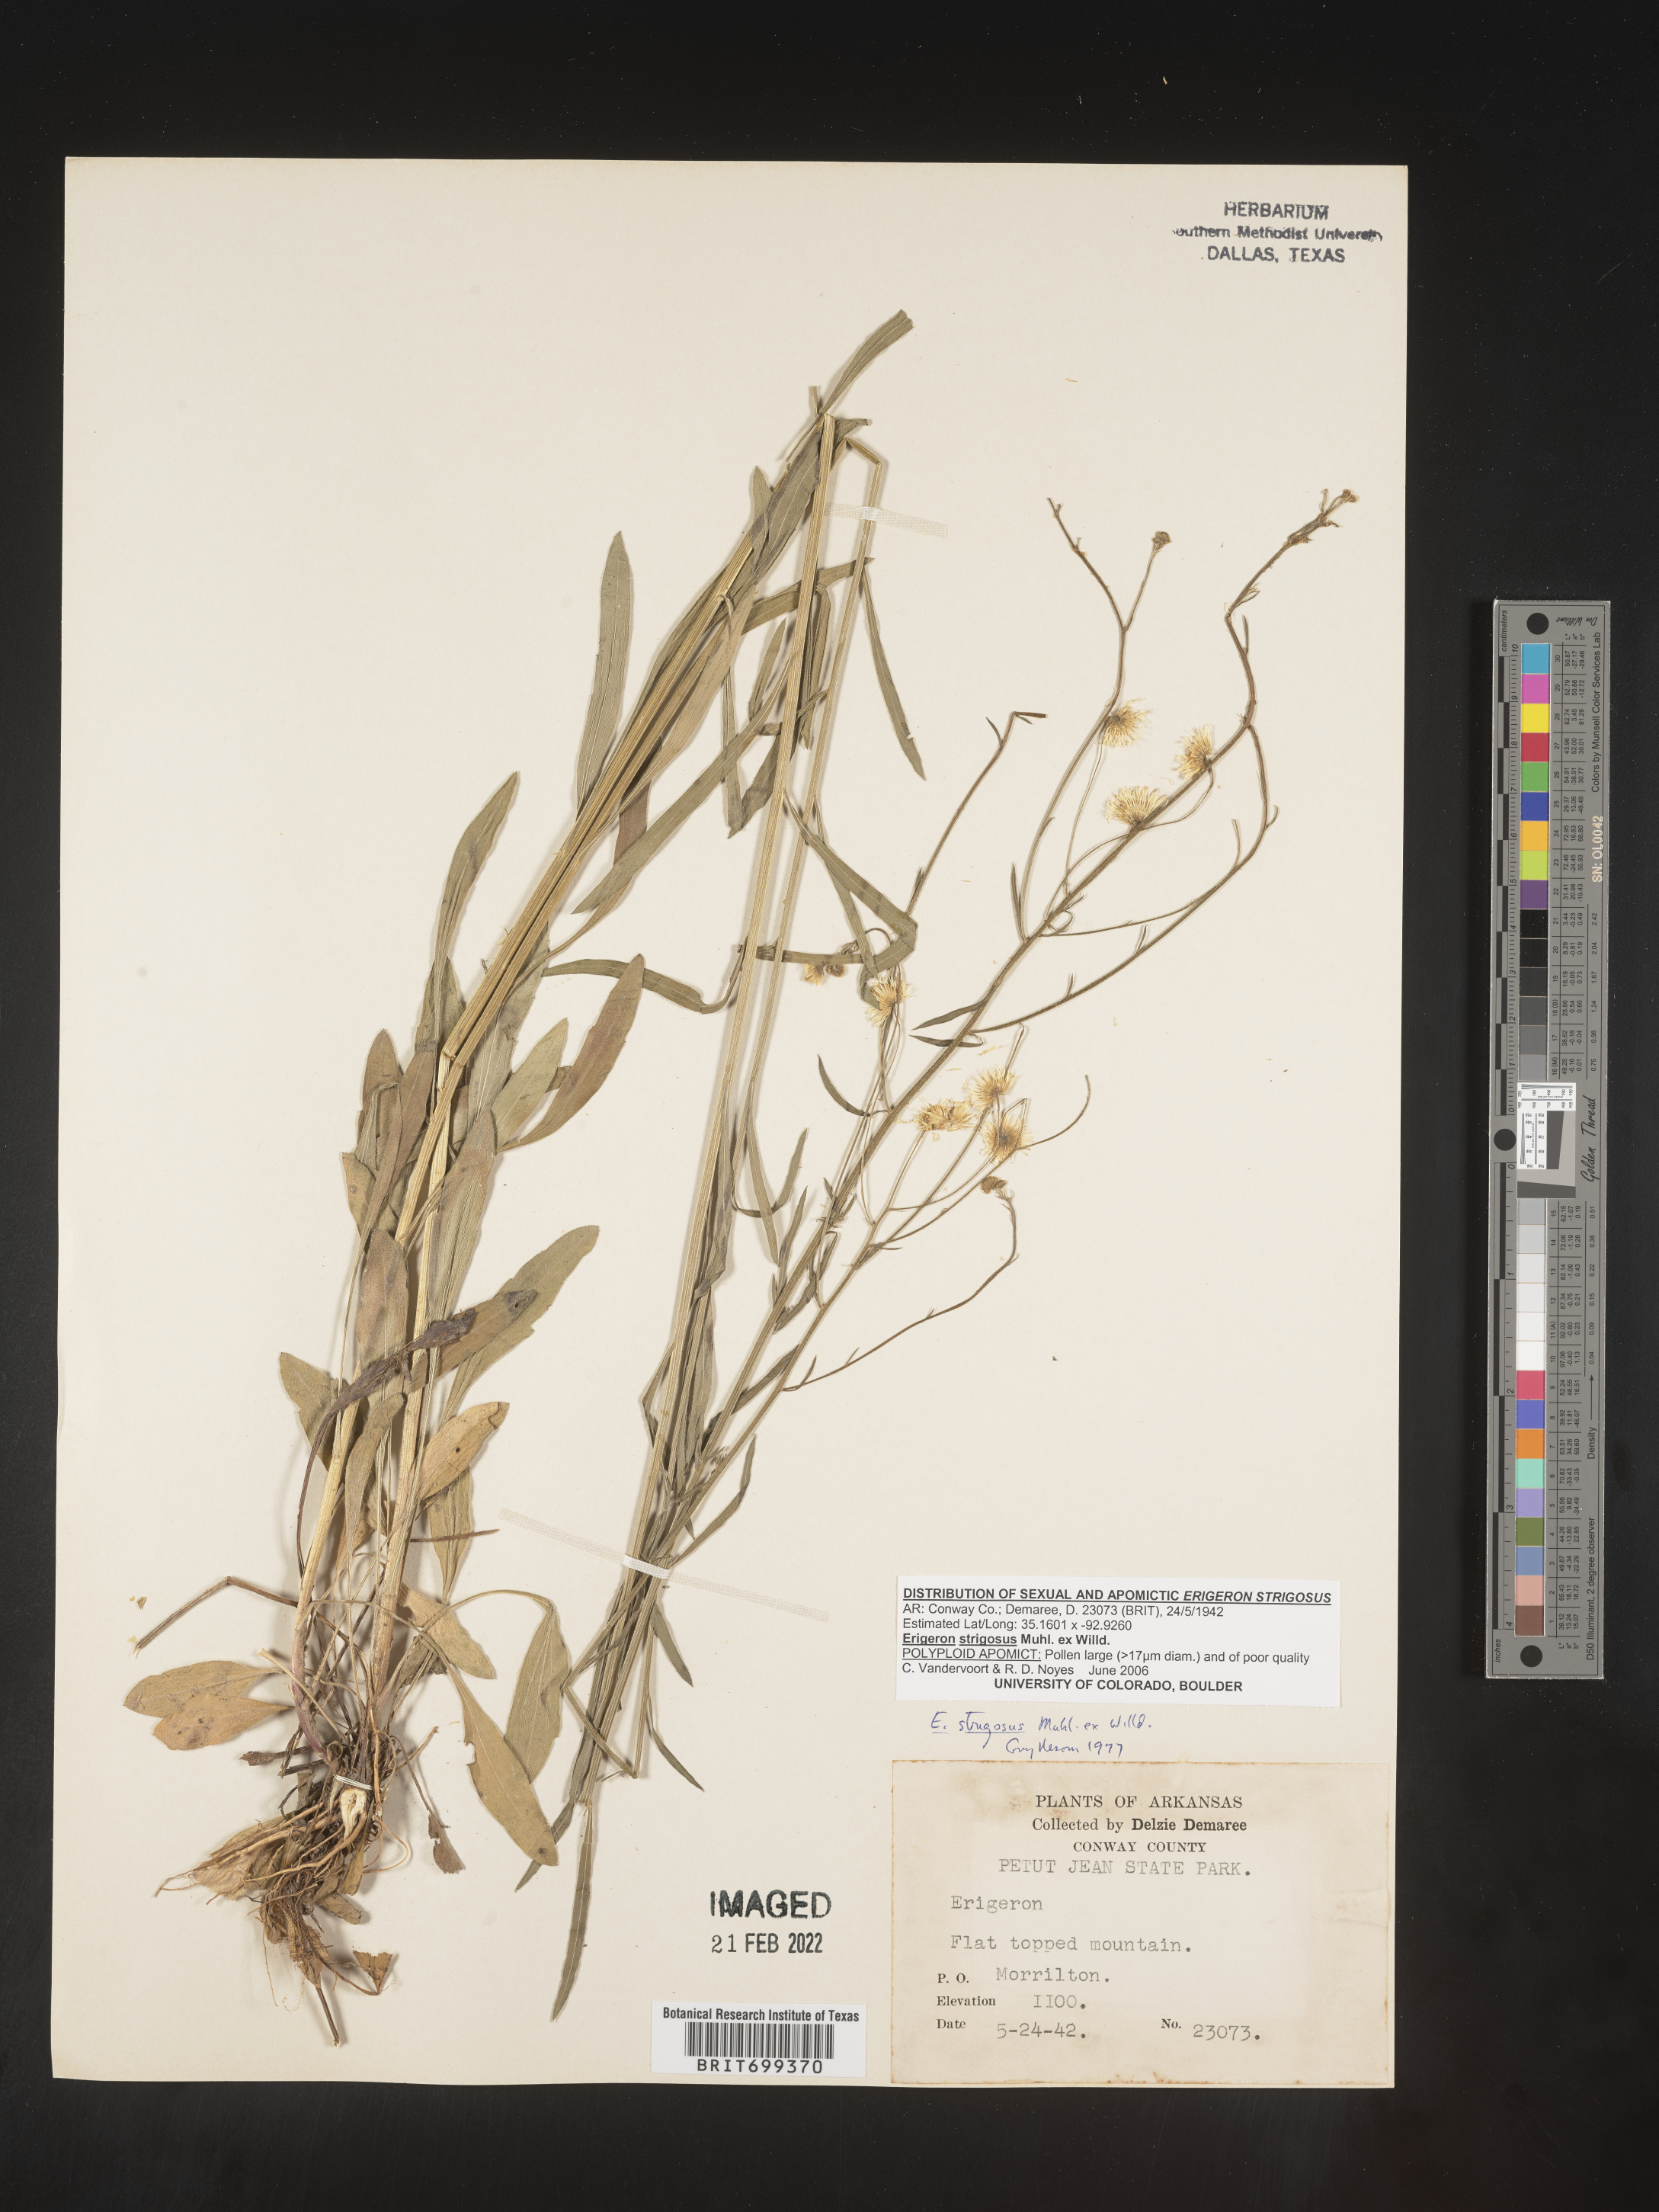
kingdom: Plantae
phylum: Tracheophyta
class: Magnoliopsida
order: Asterales
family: Asteraceae
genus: Erigeron
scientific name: Erigeron strigosus
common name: Common eastern fleabane
